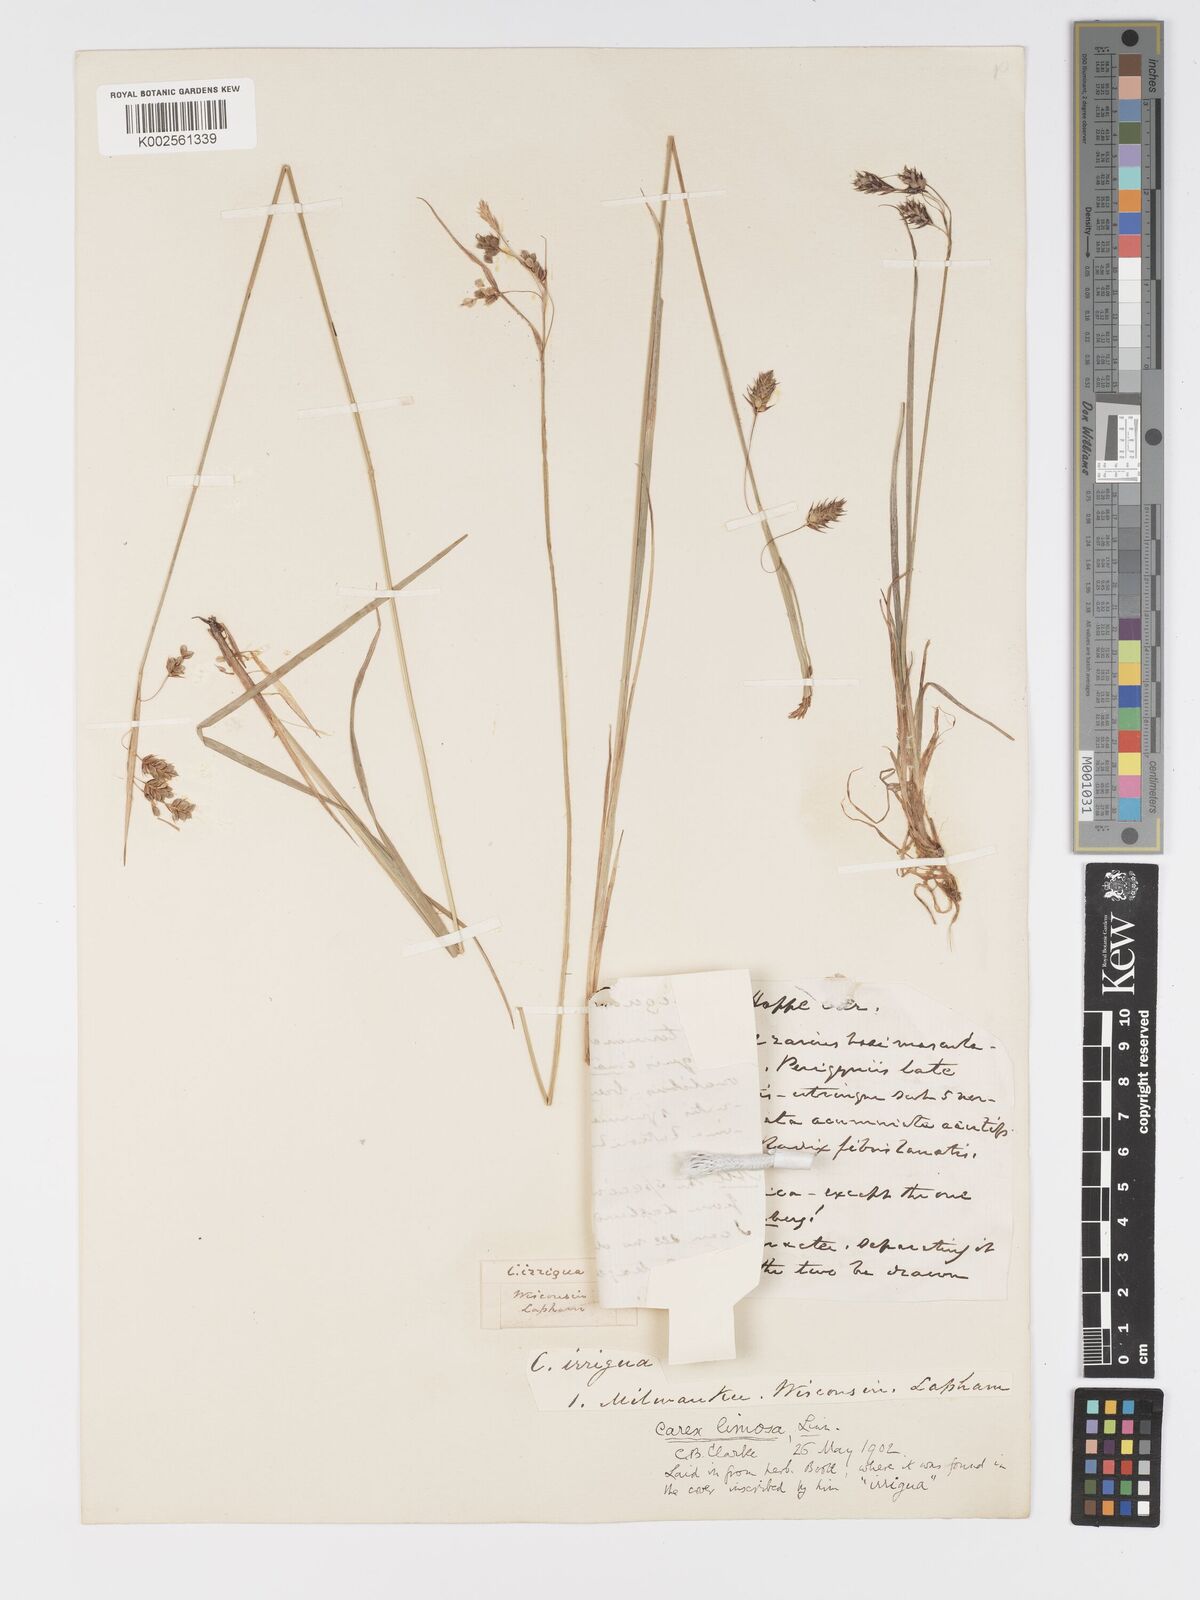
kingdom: Plantae
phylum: Tracheophyta
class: Liliopsida
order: Poales
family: Cyperaceae
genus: Carex
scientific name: Carex magellanica
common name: Bog sedge
